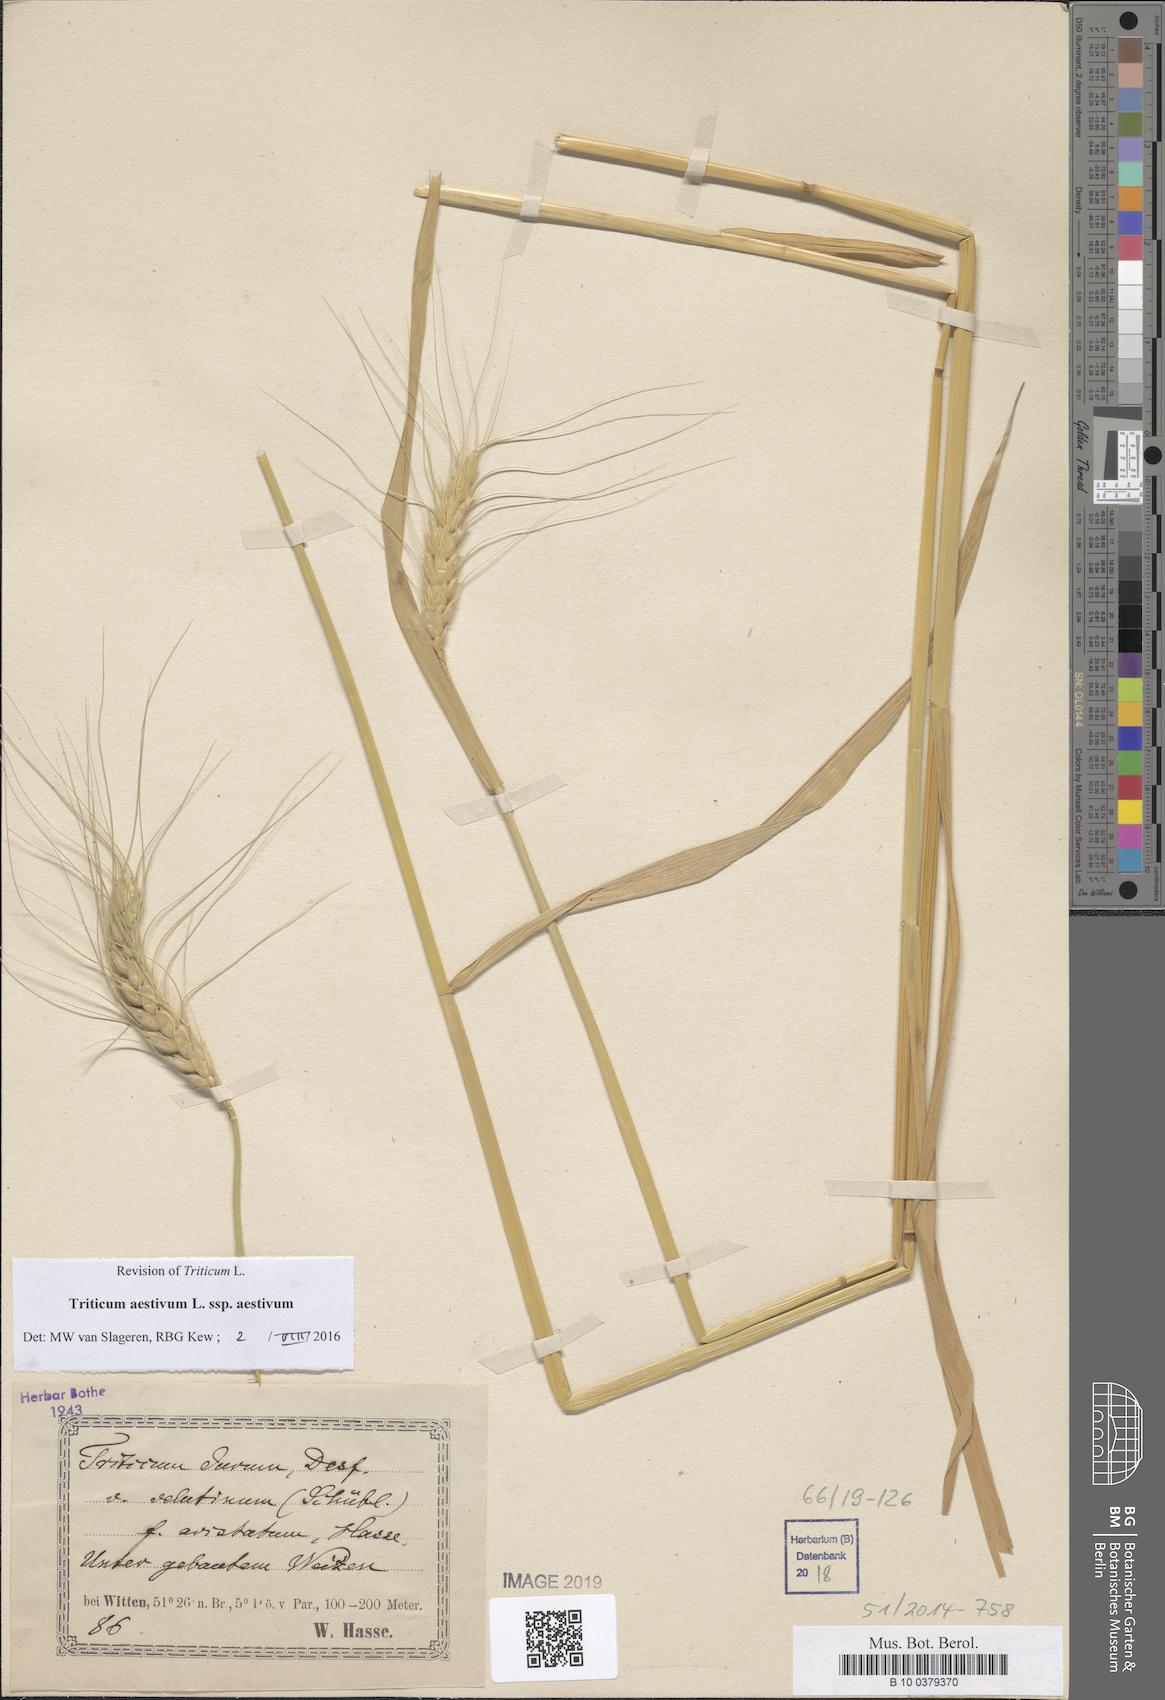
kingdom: Plantae
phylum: Tracheophyta
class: Liliopsida
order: Poales
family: Poaceae
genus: Triticum
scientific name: Triticum aestivum
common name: Common wheat
